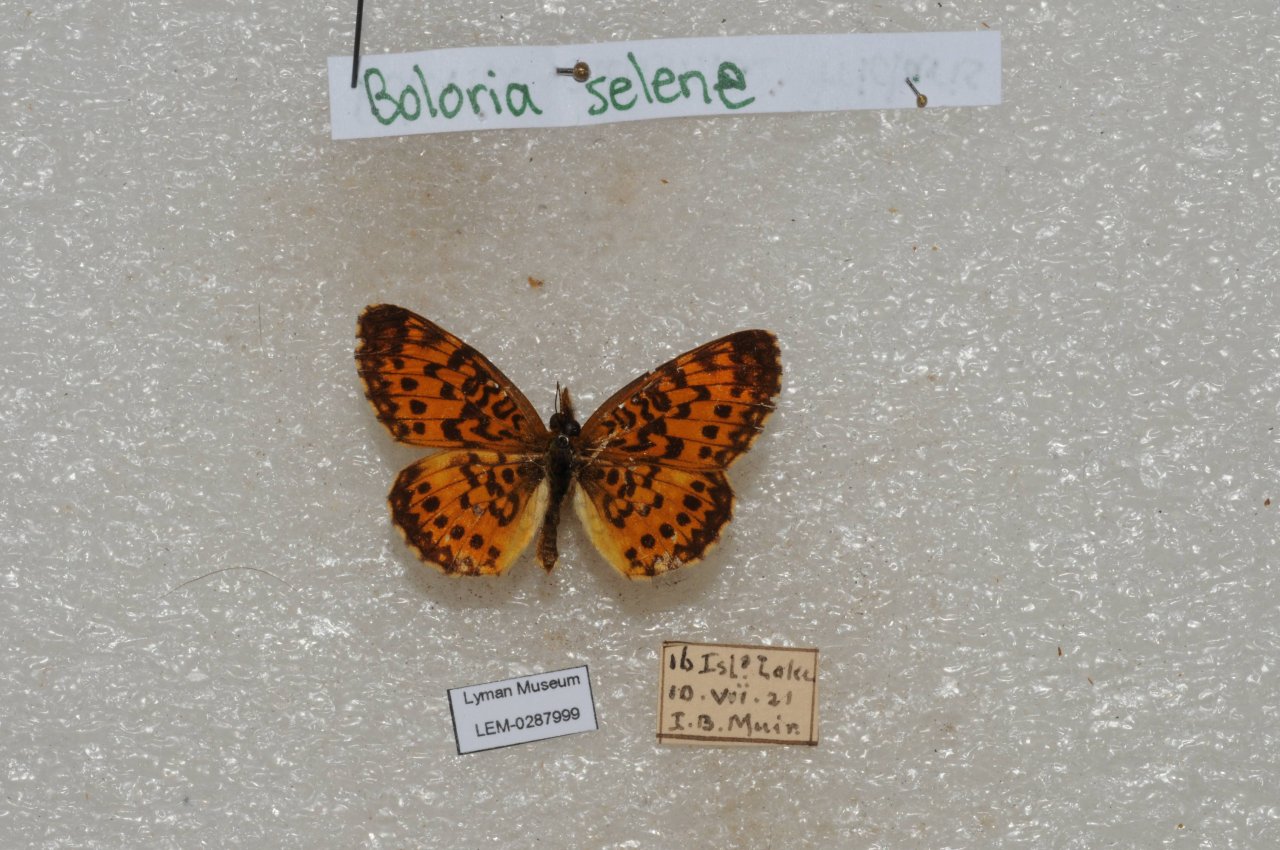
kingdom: Animalia
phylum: Arthropoda
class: Insecta
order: Lepidoptera
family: Nymphalidae
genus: Boloria
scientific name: Boloria selene
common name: Silver-bordered Fritillary
